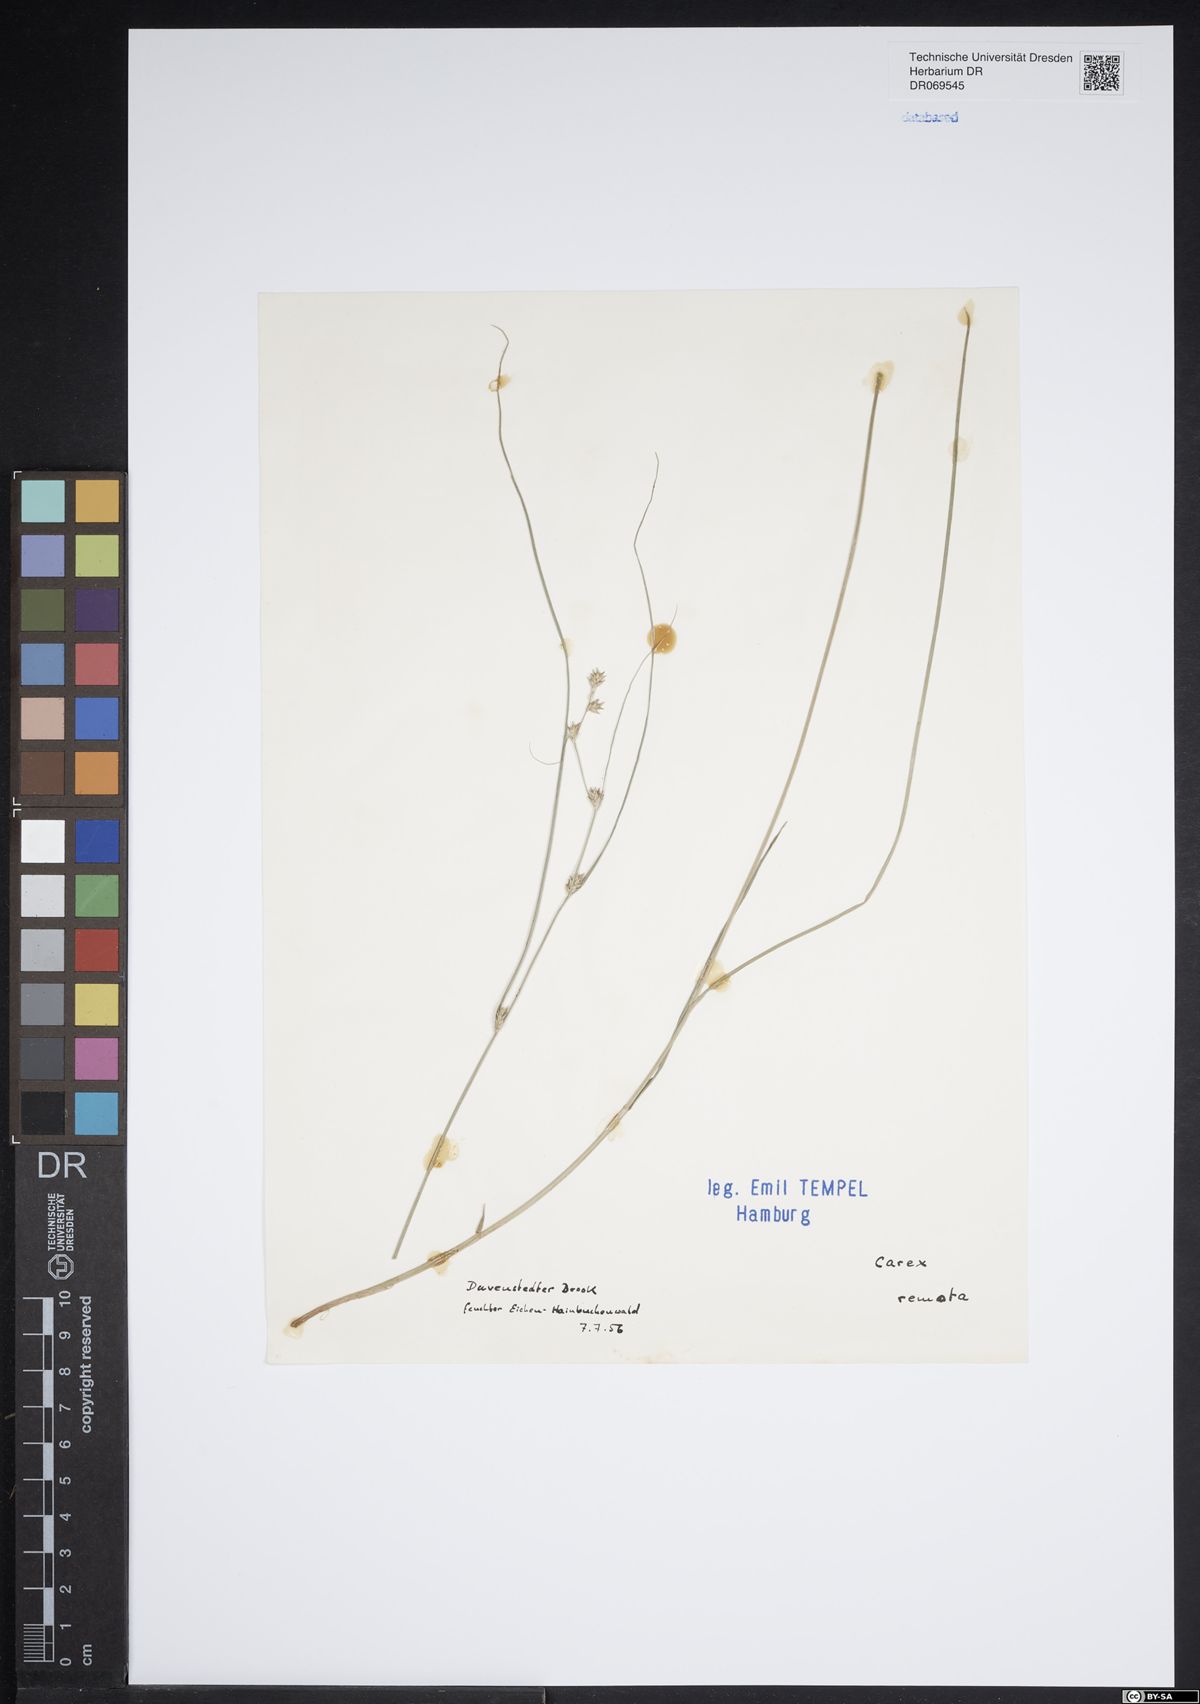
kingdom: Plantae
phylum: Tracheophyta
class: Liliopsida
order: Poales
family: Cyperaceae
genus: Carex
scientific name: Carex remota
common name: Remote sedge
